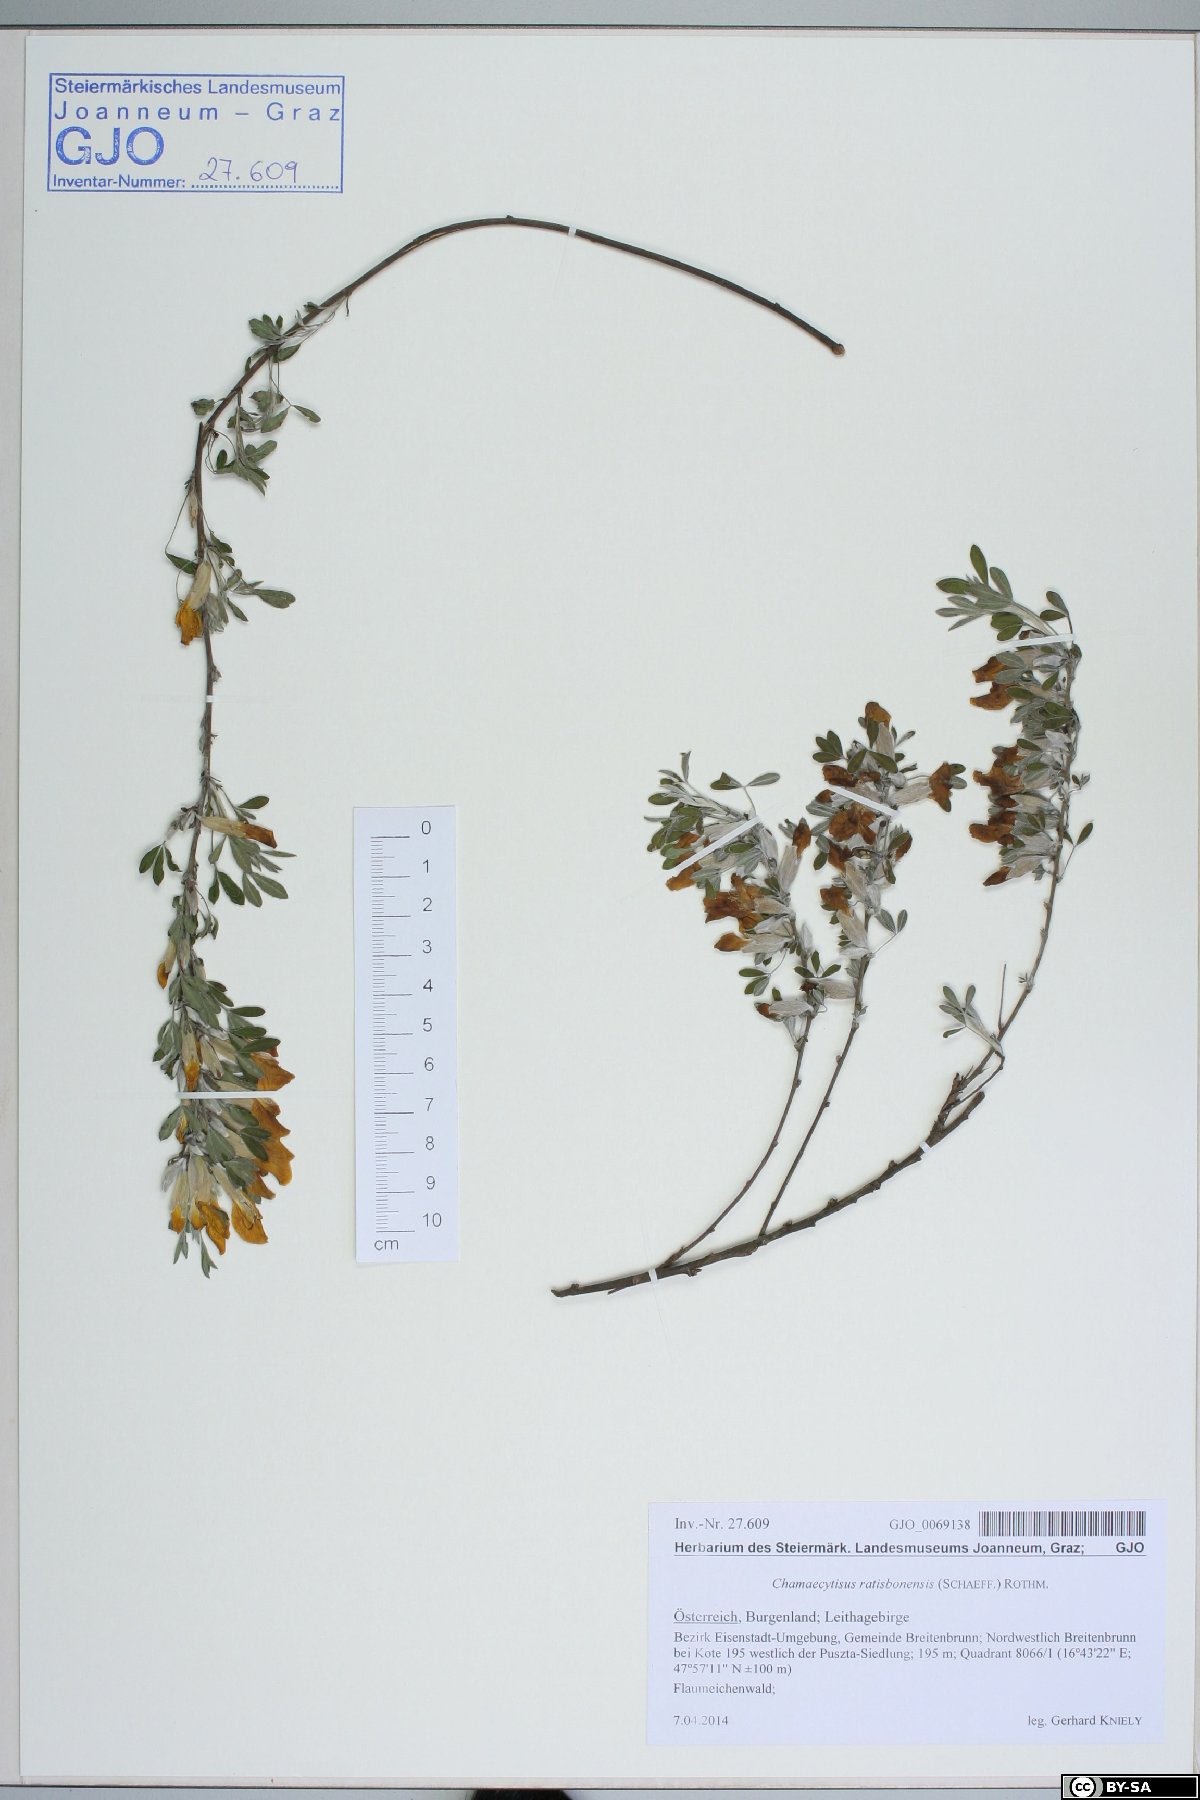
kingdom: Plantae
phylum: Tracheophyta
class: Magnoliopsida
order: Fabales
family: Fabaceae
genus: Chamaecytisus
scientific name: Chamaecytisus ratisbonensis
